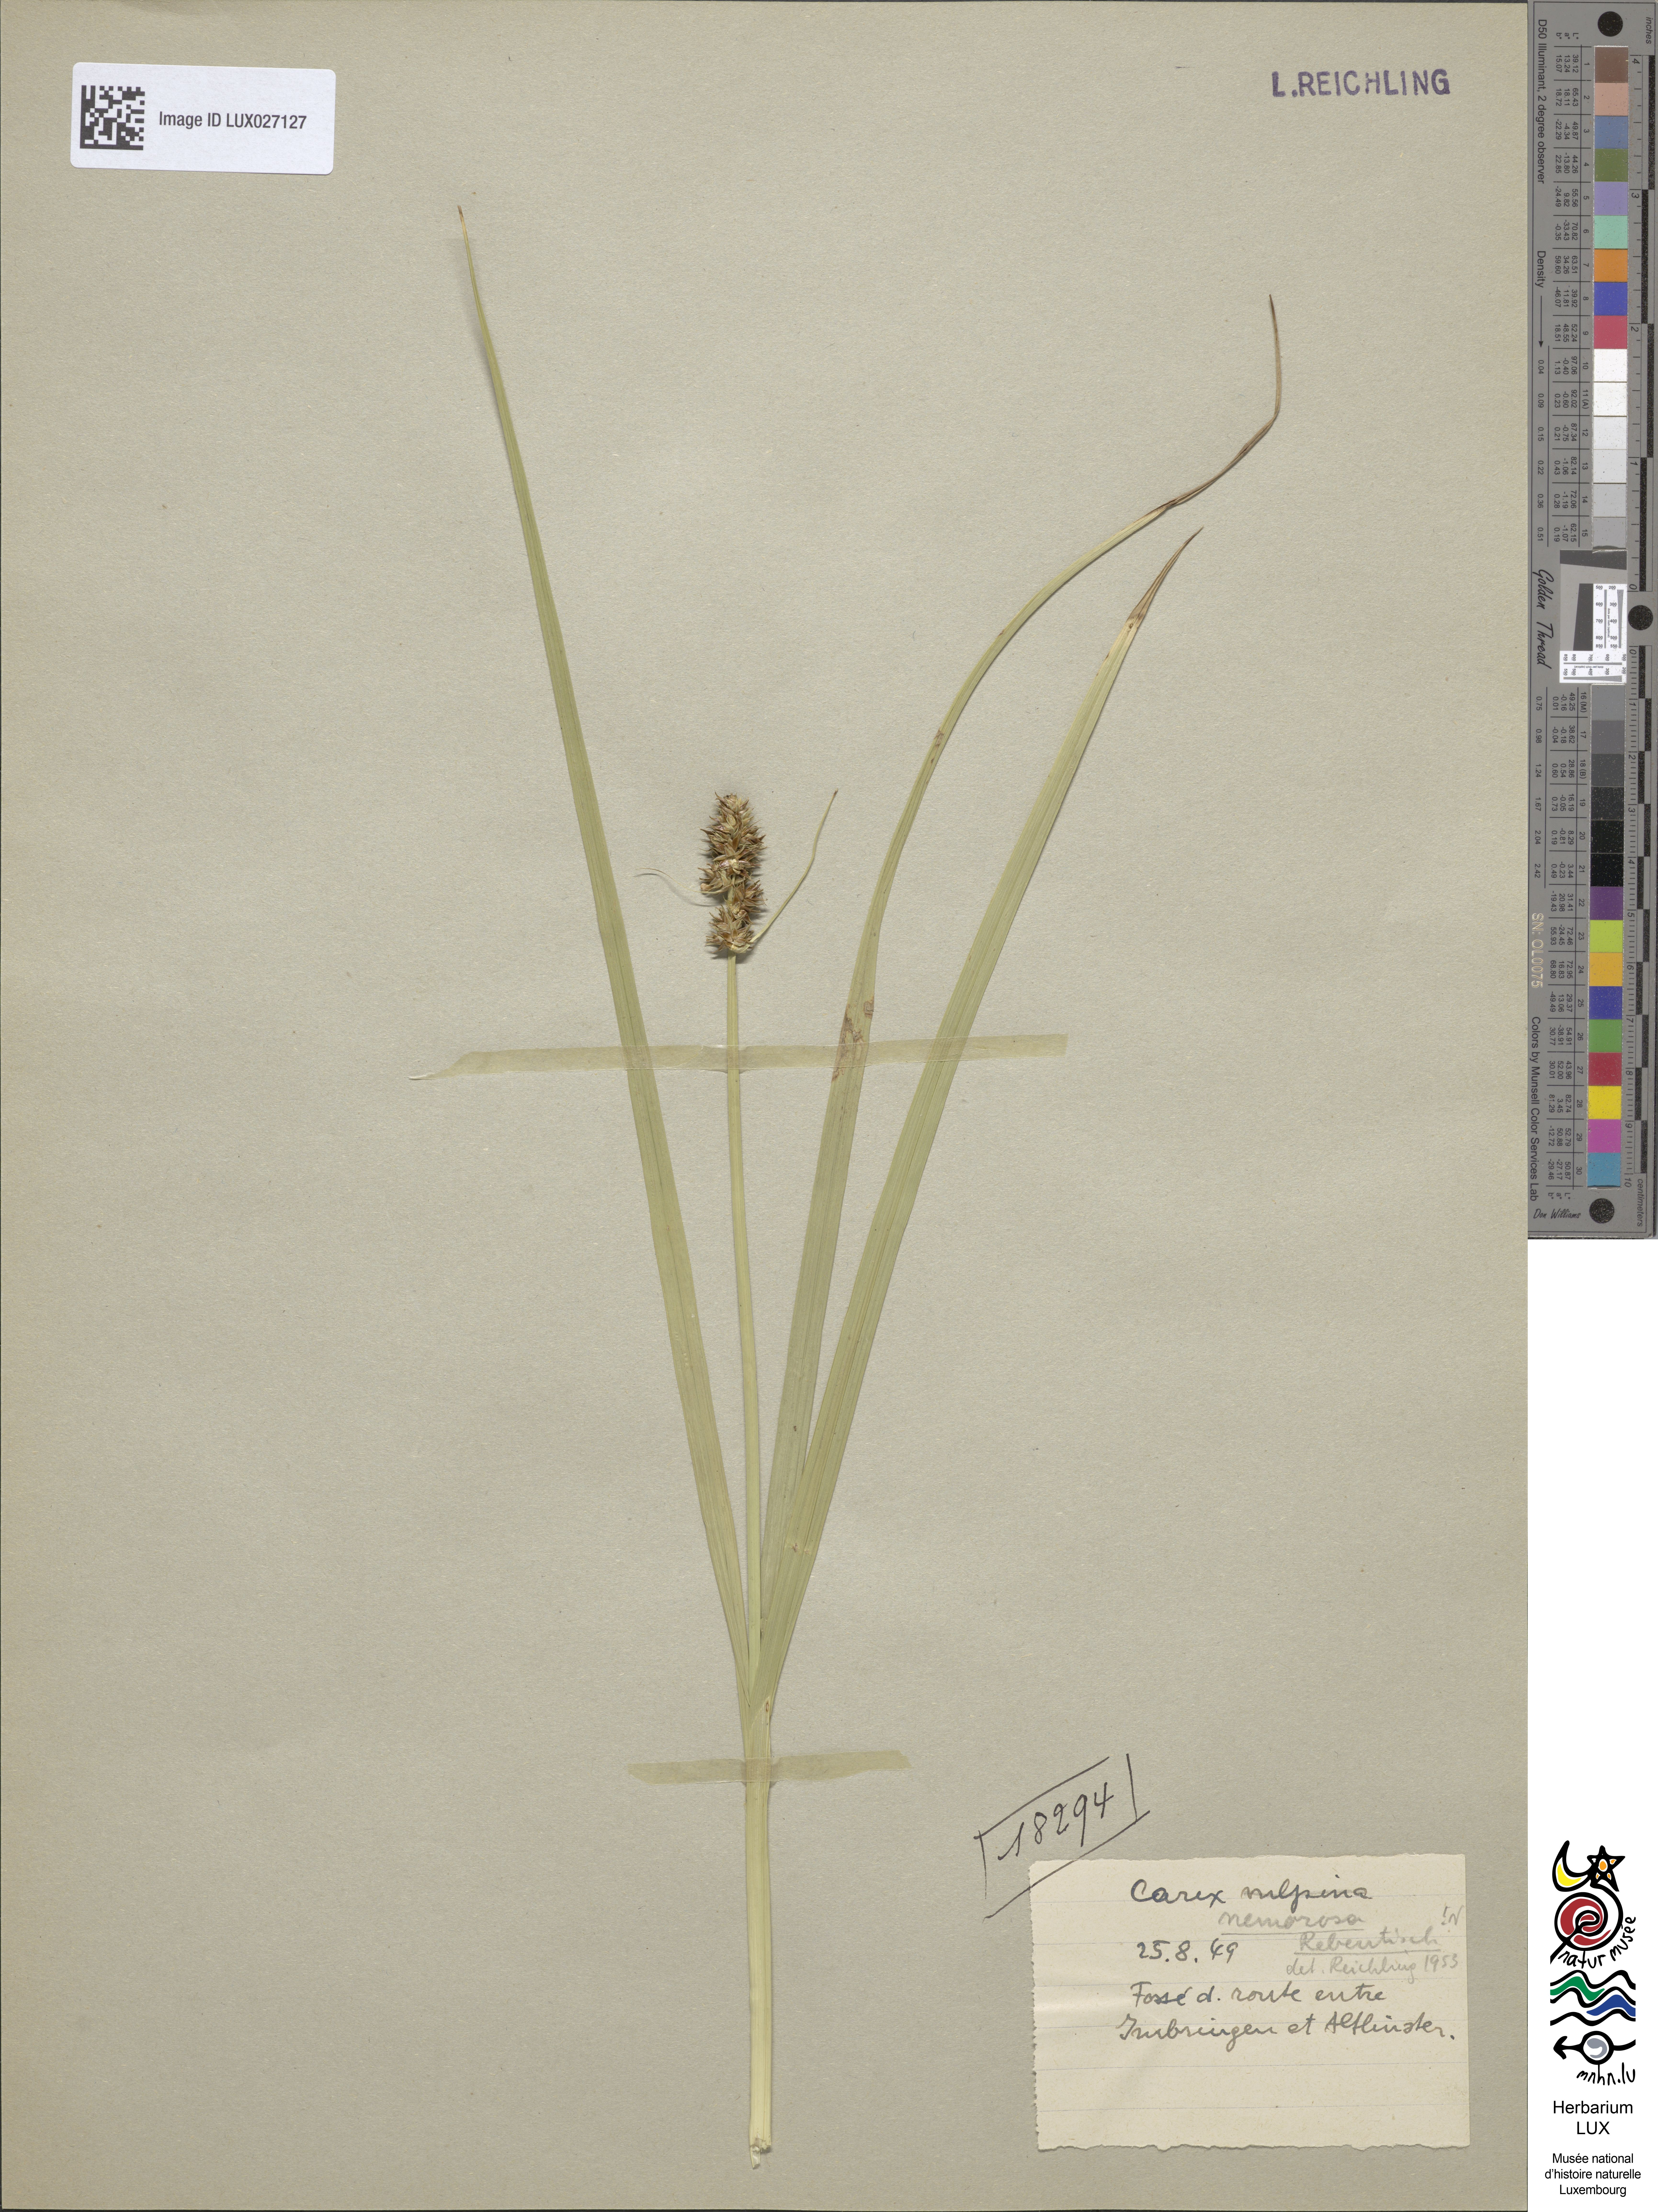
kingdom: Plantae
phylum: Tracheophyta
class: Liliopsida
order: Poales
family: Cyperaceae
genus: Carex
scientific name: Carex vulpina
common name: True fox-sedge
